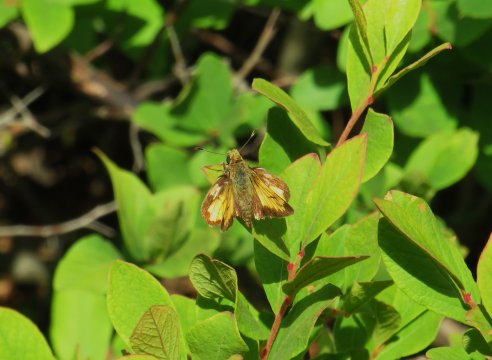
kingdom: Animalia
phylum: Arthropoda
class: Insecta
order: Lepidoptera
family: Hesperiidae
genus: Lon
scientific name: Lon hobomok
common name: Hobomok Skipper
